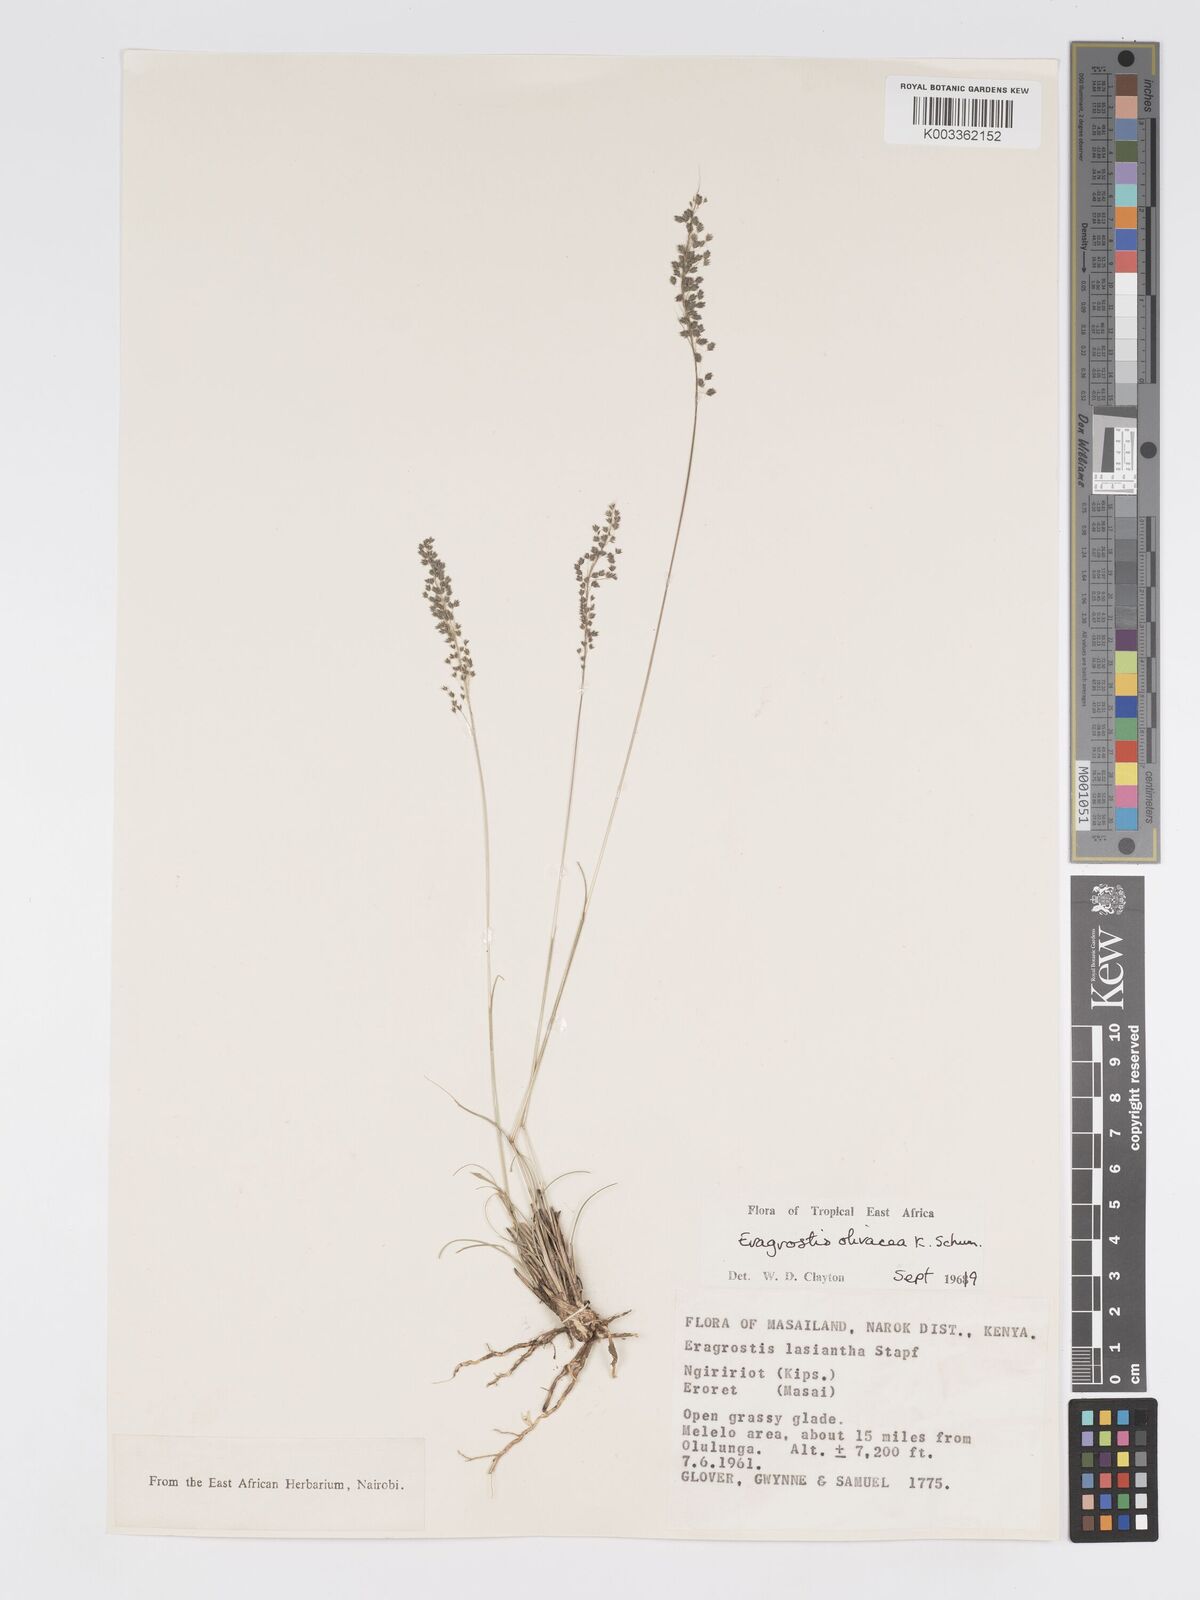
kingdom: Plantae
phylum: Tracheophyta
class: Liliopsida
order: Poales
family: Poaceae
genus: Eragrostis
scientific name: Eragrostis olivacea
